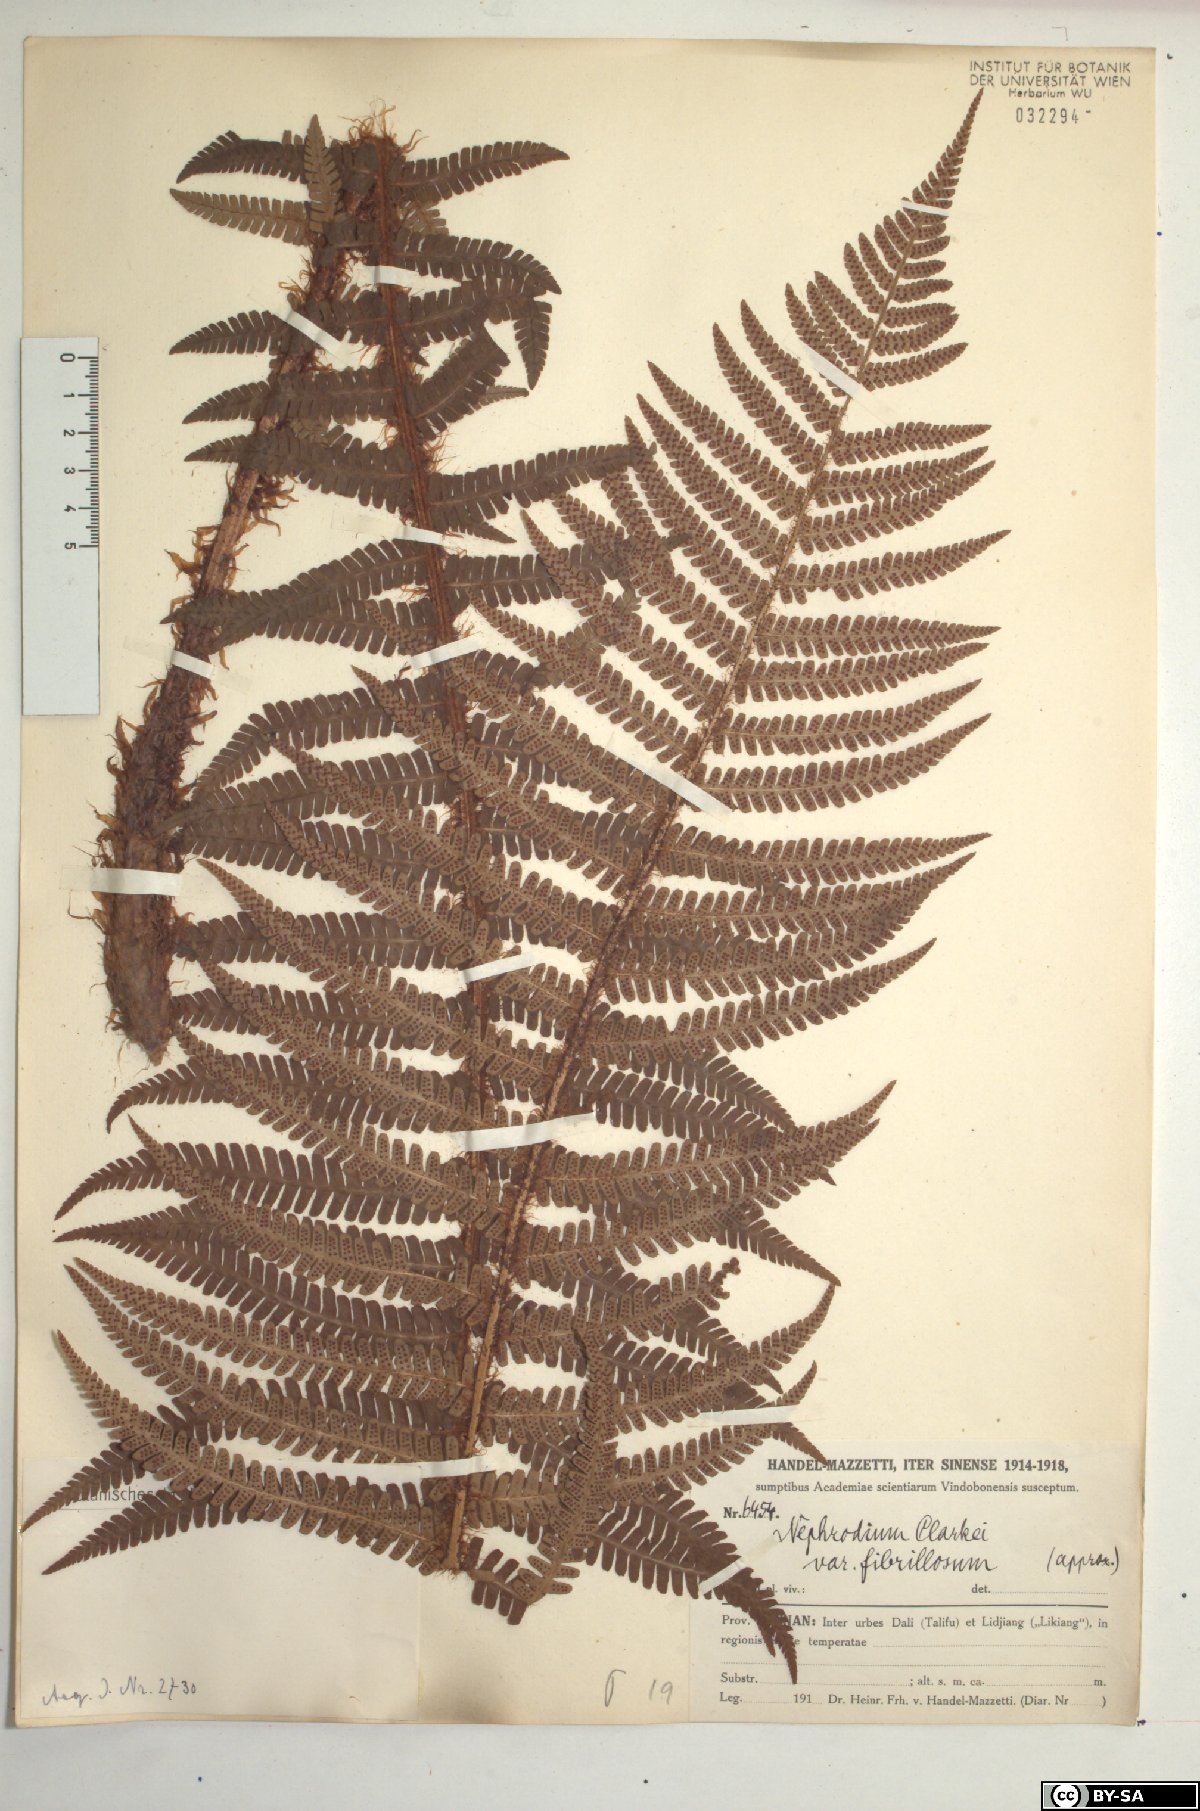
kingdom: Plantae
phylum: Tracheophyta
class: Polypodiopsida
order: Polypodiales
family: Dryopteridaceae
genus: Dryopteris
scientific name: Dryopteris xanthomelas
